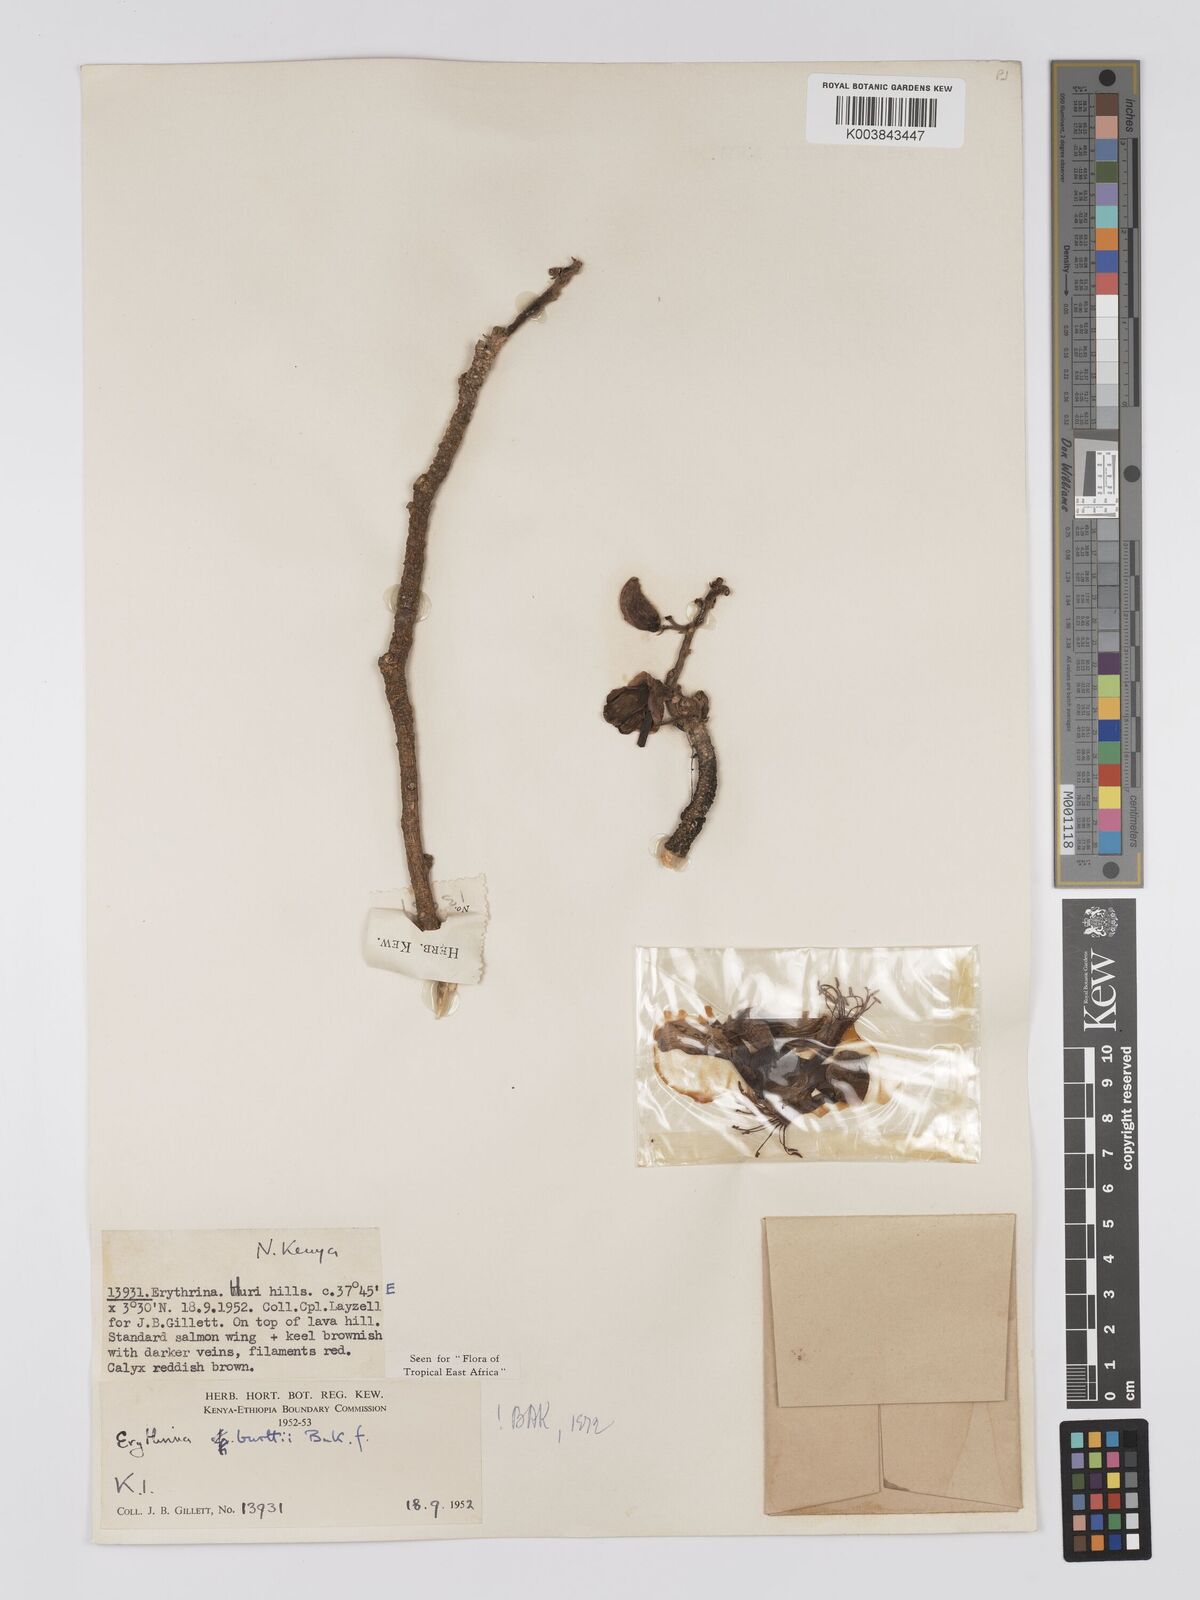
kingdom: Plantae
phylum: Tracheophyta
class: Magnoliopsida
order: Fabales
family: Fabaceae
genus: Erythrina
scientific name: Erythrina burttii
